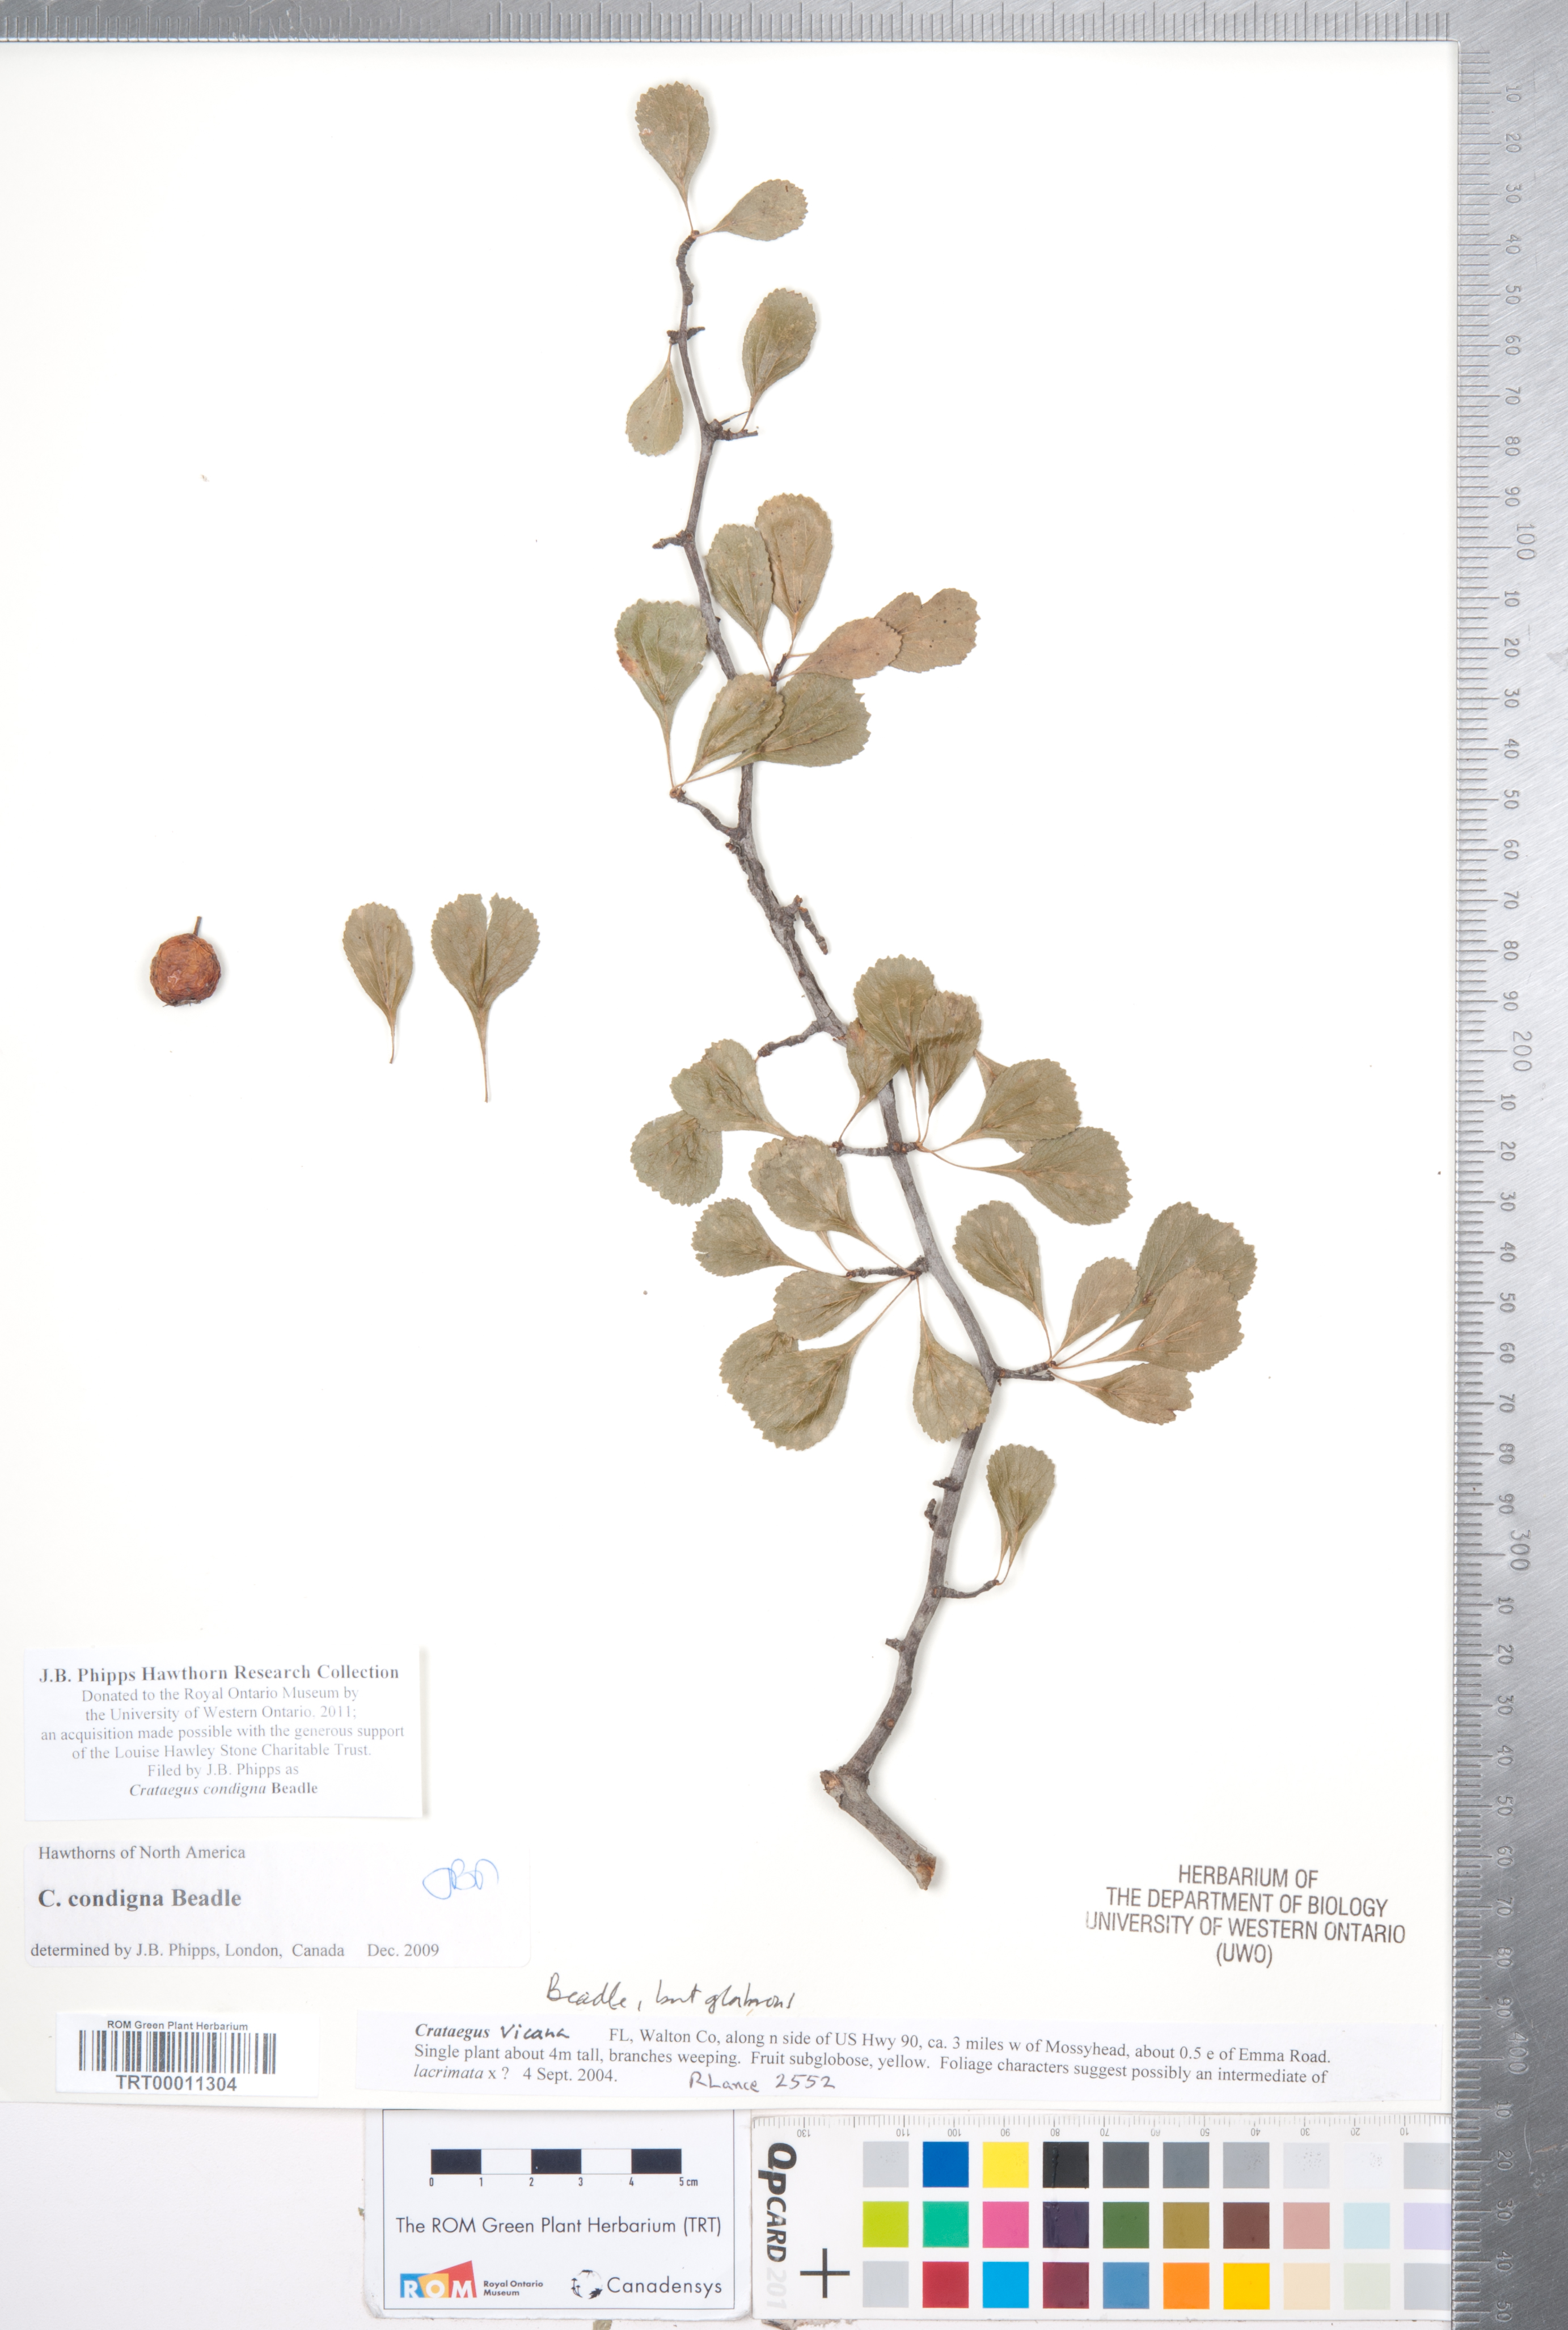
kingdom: Plantae
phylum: Tracheophyta
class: Magnoliopsida
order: Rosales
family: Rosaceae
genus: Crataegus
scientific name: Crataegus condigna
